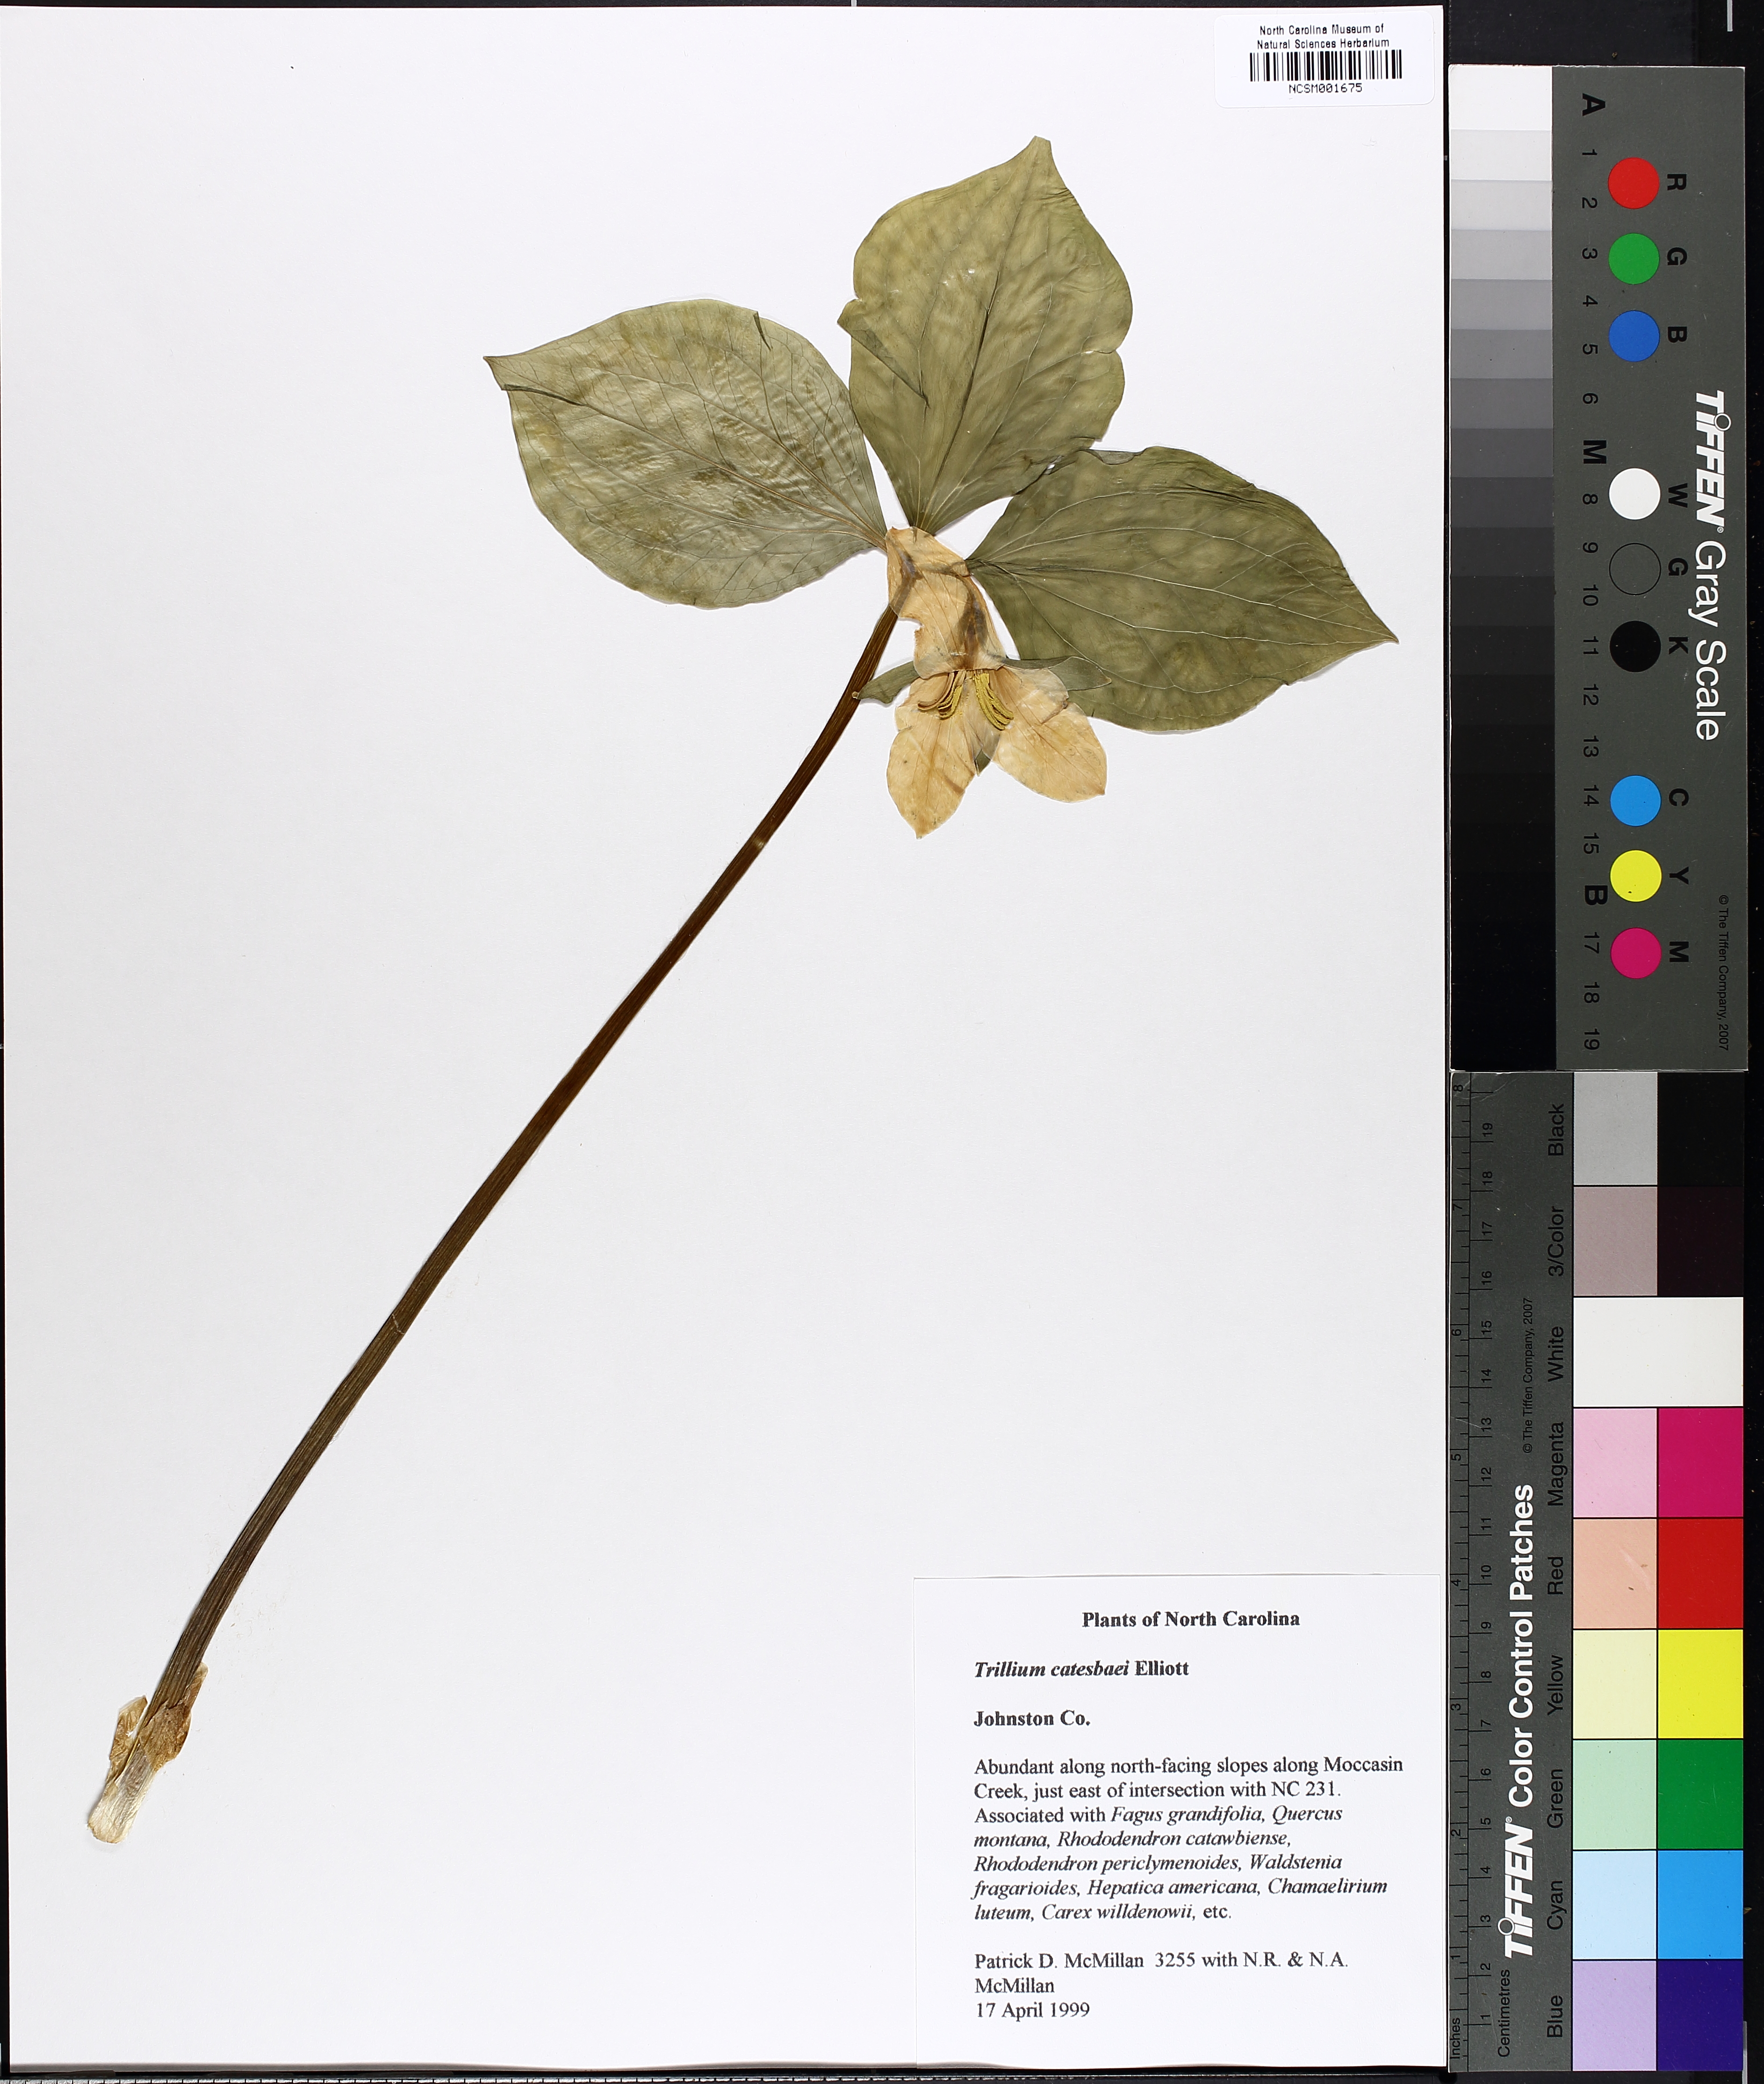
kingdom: Plantae
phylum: Tracheophyta
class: Liliopsida
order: Liliales
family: Melanthiaceae
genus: Trillium
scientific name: Trillium catesbaei
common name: Bashful trillium
